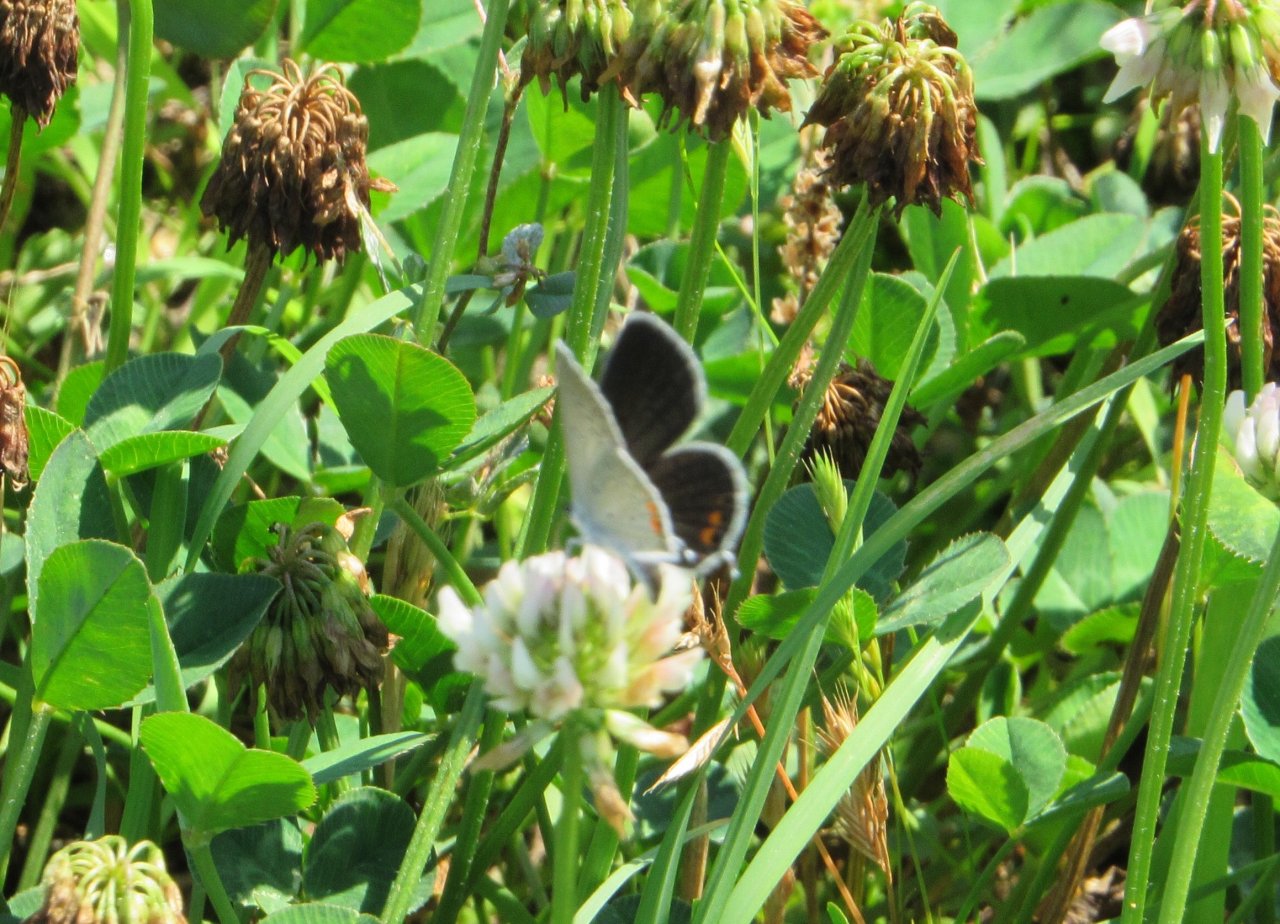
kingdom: Animalia
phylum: Arthropoda
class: Insecta
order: Lepidoptera
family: Lycaenidae
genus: Elkalyce
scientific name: Elkalyce comyntas
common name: Eastern Tailed-Blue
